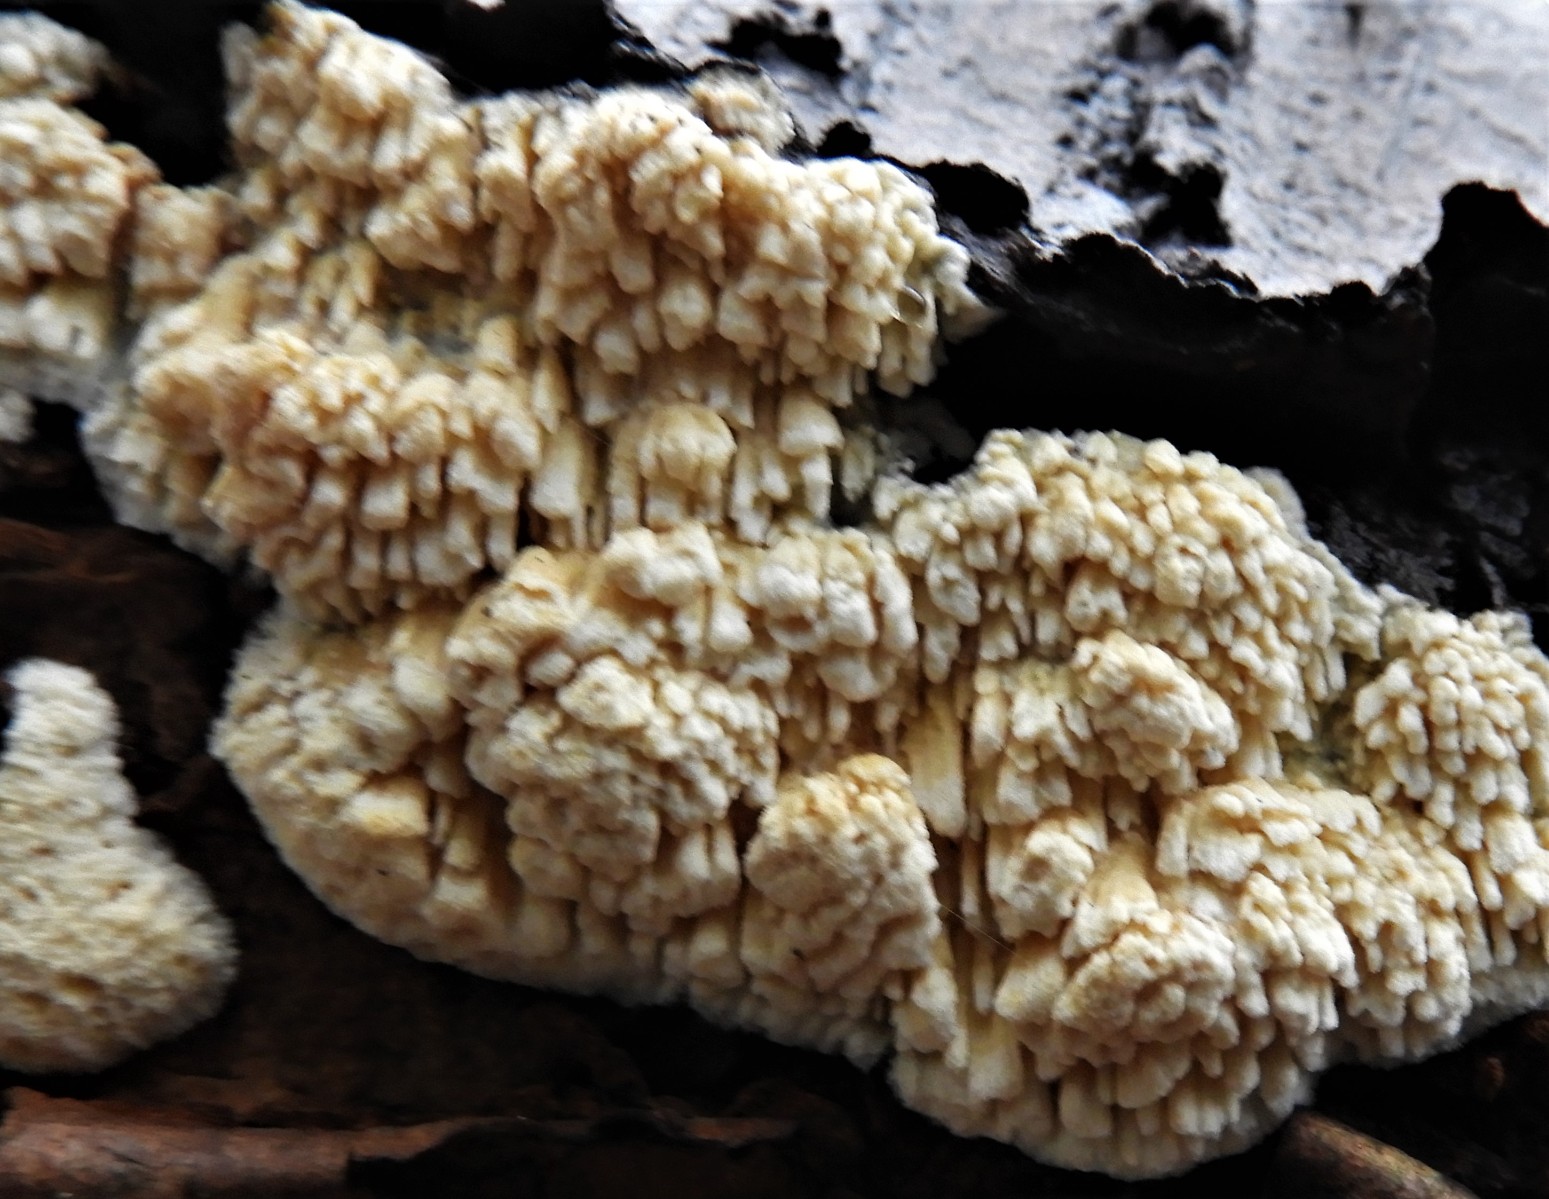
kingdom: Fungi
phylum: Basidiomycota
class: Agaricomycetes
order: Hymenochaetales
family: Schizoporaceae
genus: Xylodon
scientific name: Xylodon radula
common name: grovtandet kalkskind
